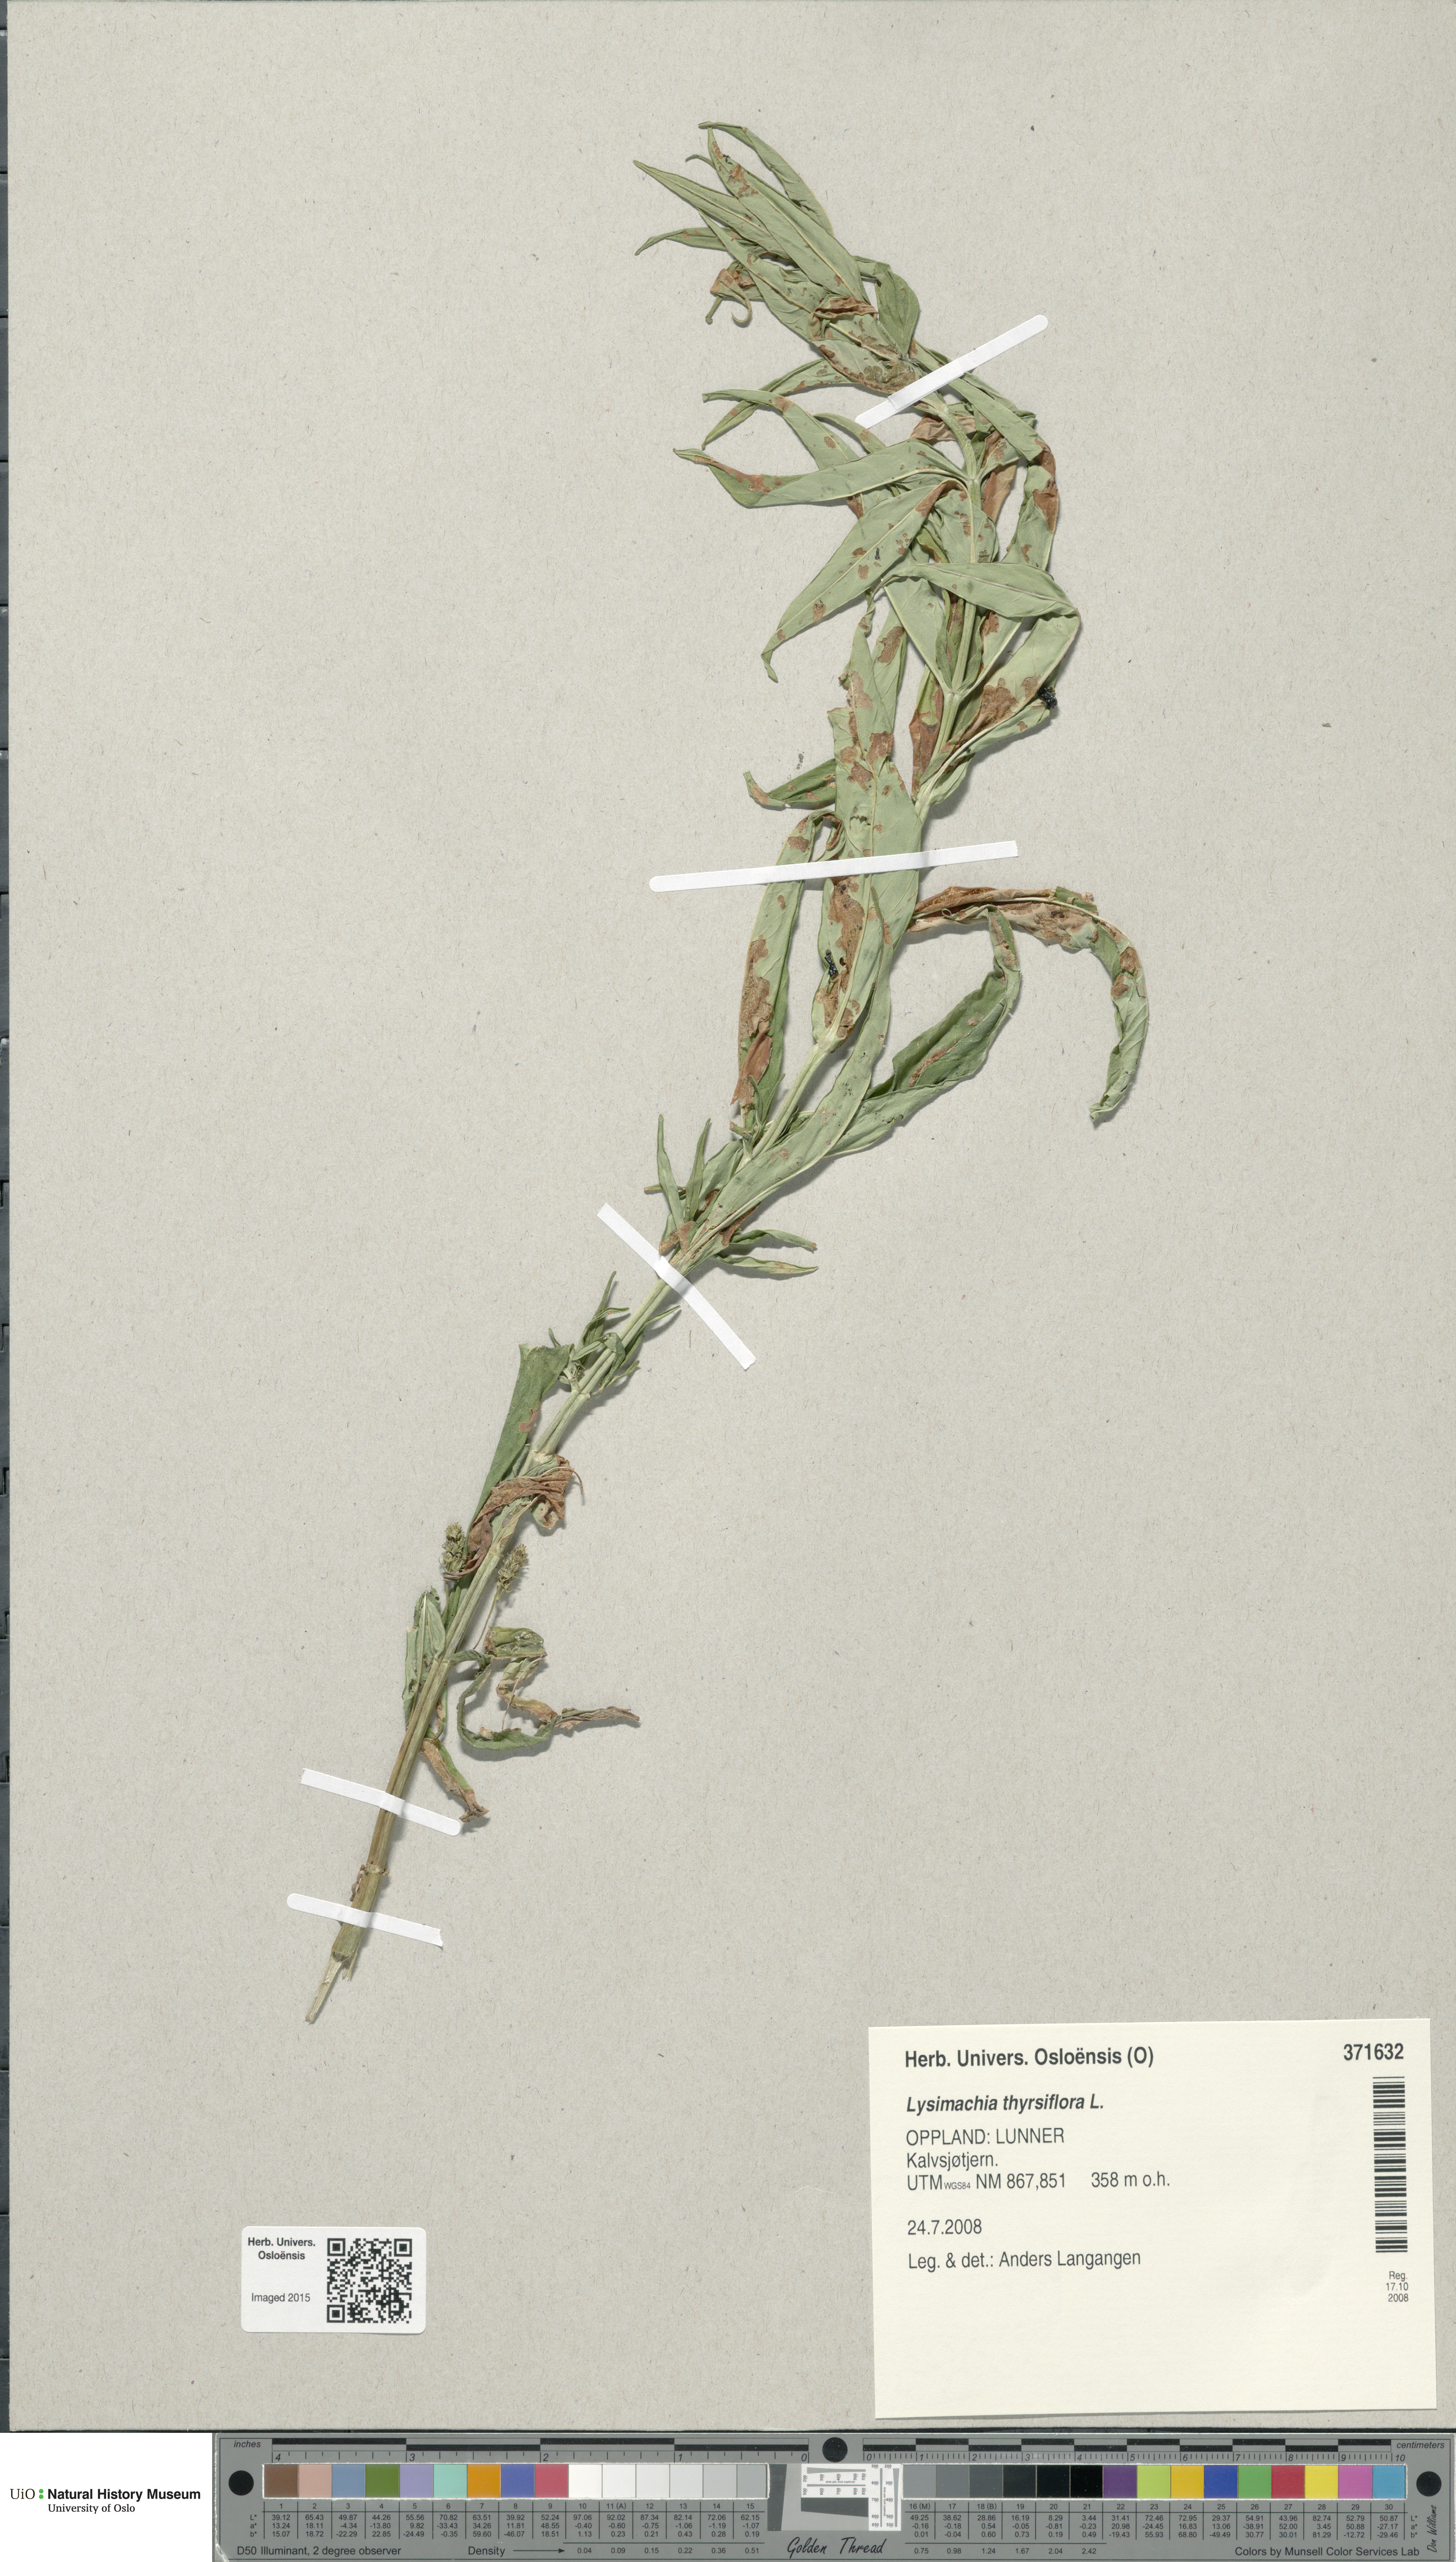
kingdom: Plantae
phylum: Tracheophyta
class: Magnoliopsida
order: Ericales
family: Primulaceae
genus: Lysimachia
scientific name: Lysimachia thyrsiflora
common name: Tufted loosestrife
